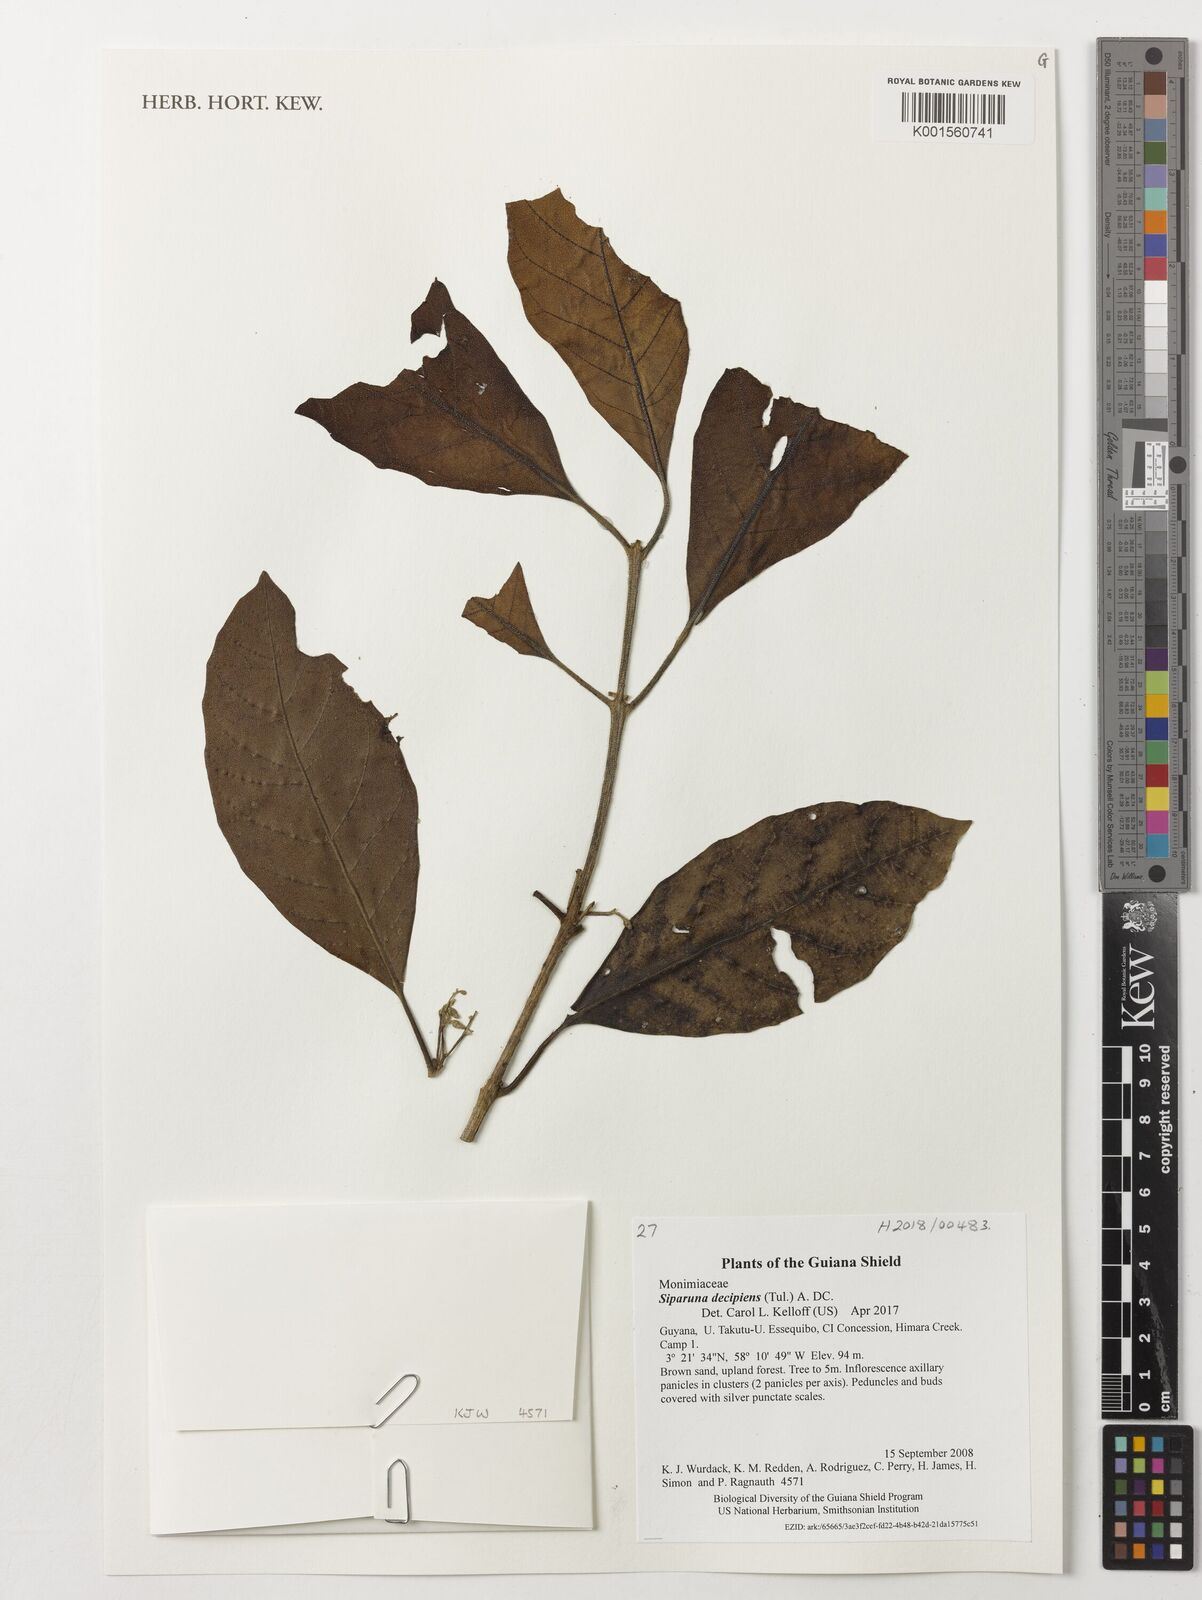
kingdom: Plantae
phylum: Tracheophyta
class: Magnoliopsida
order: Laurales
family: Siparunaceae
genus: Siparuna
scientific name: Siparuna decipiens
